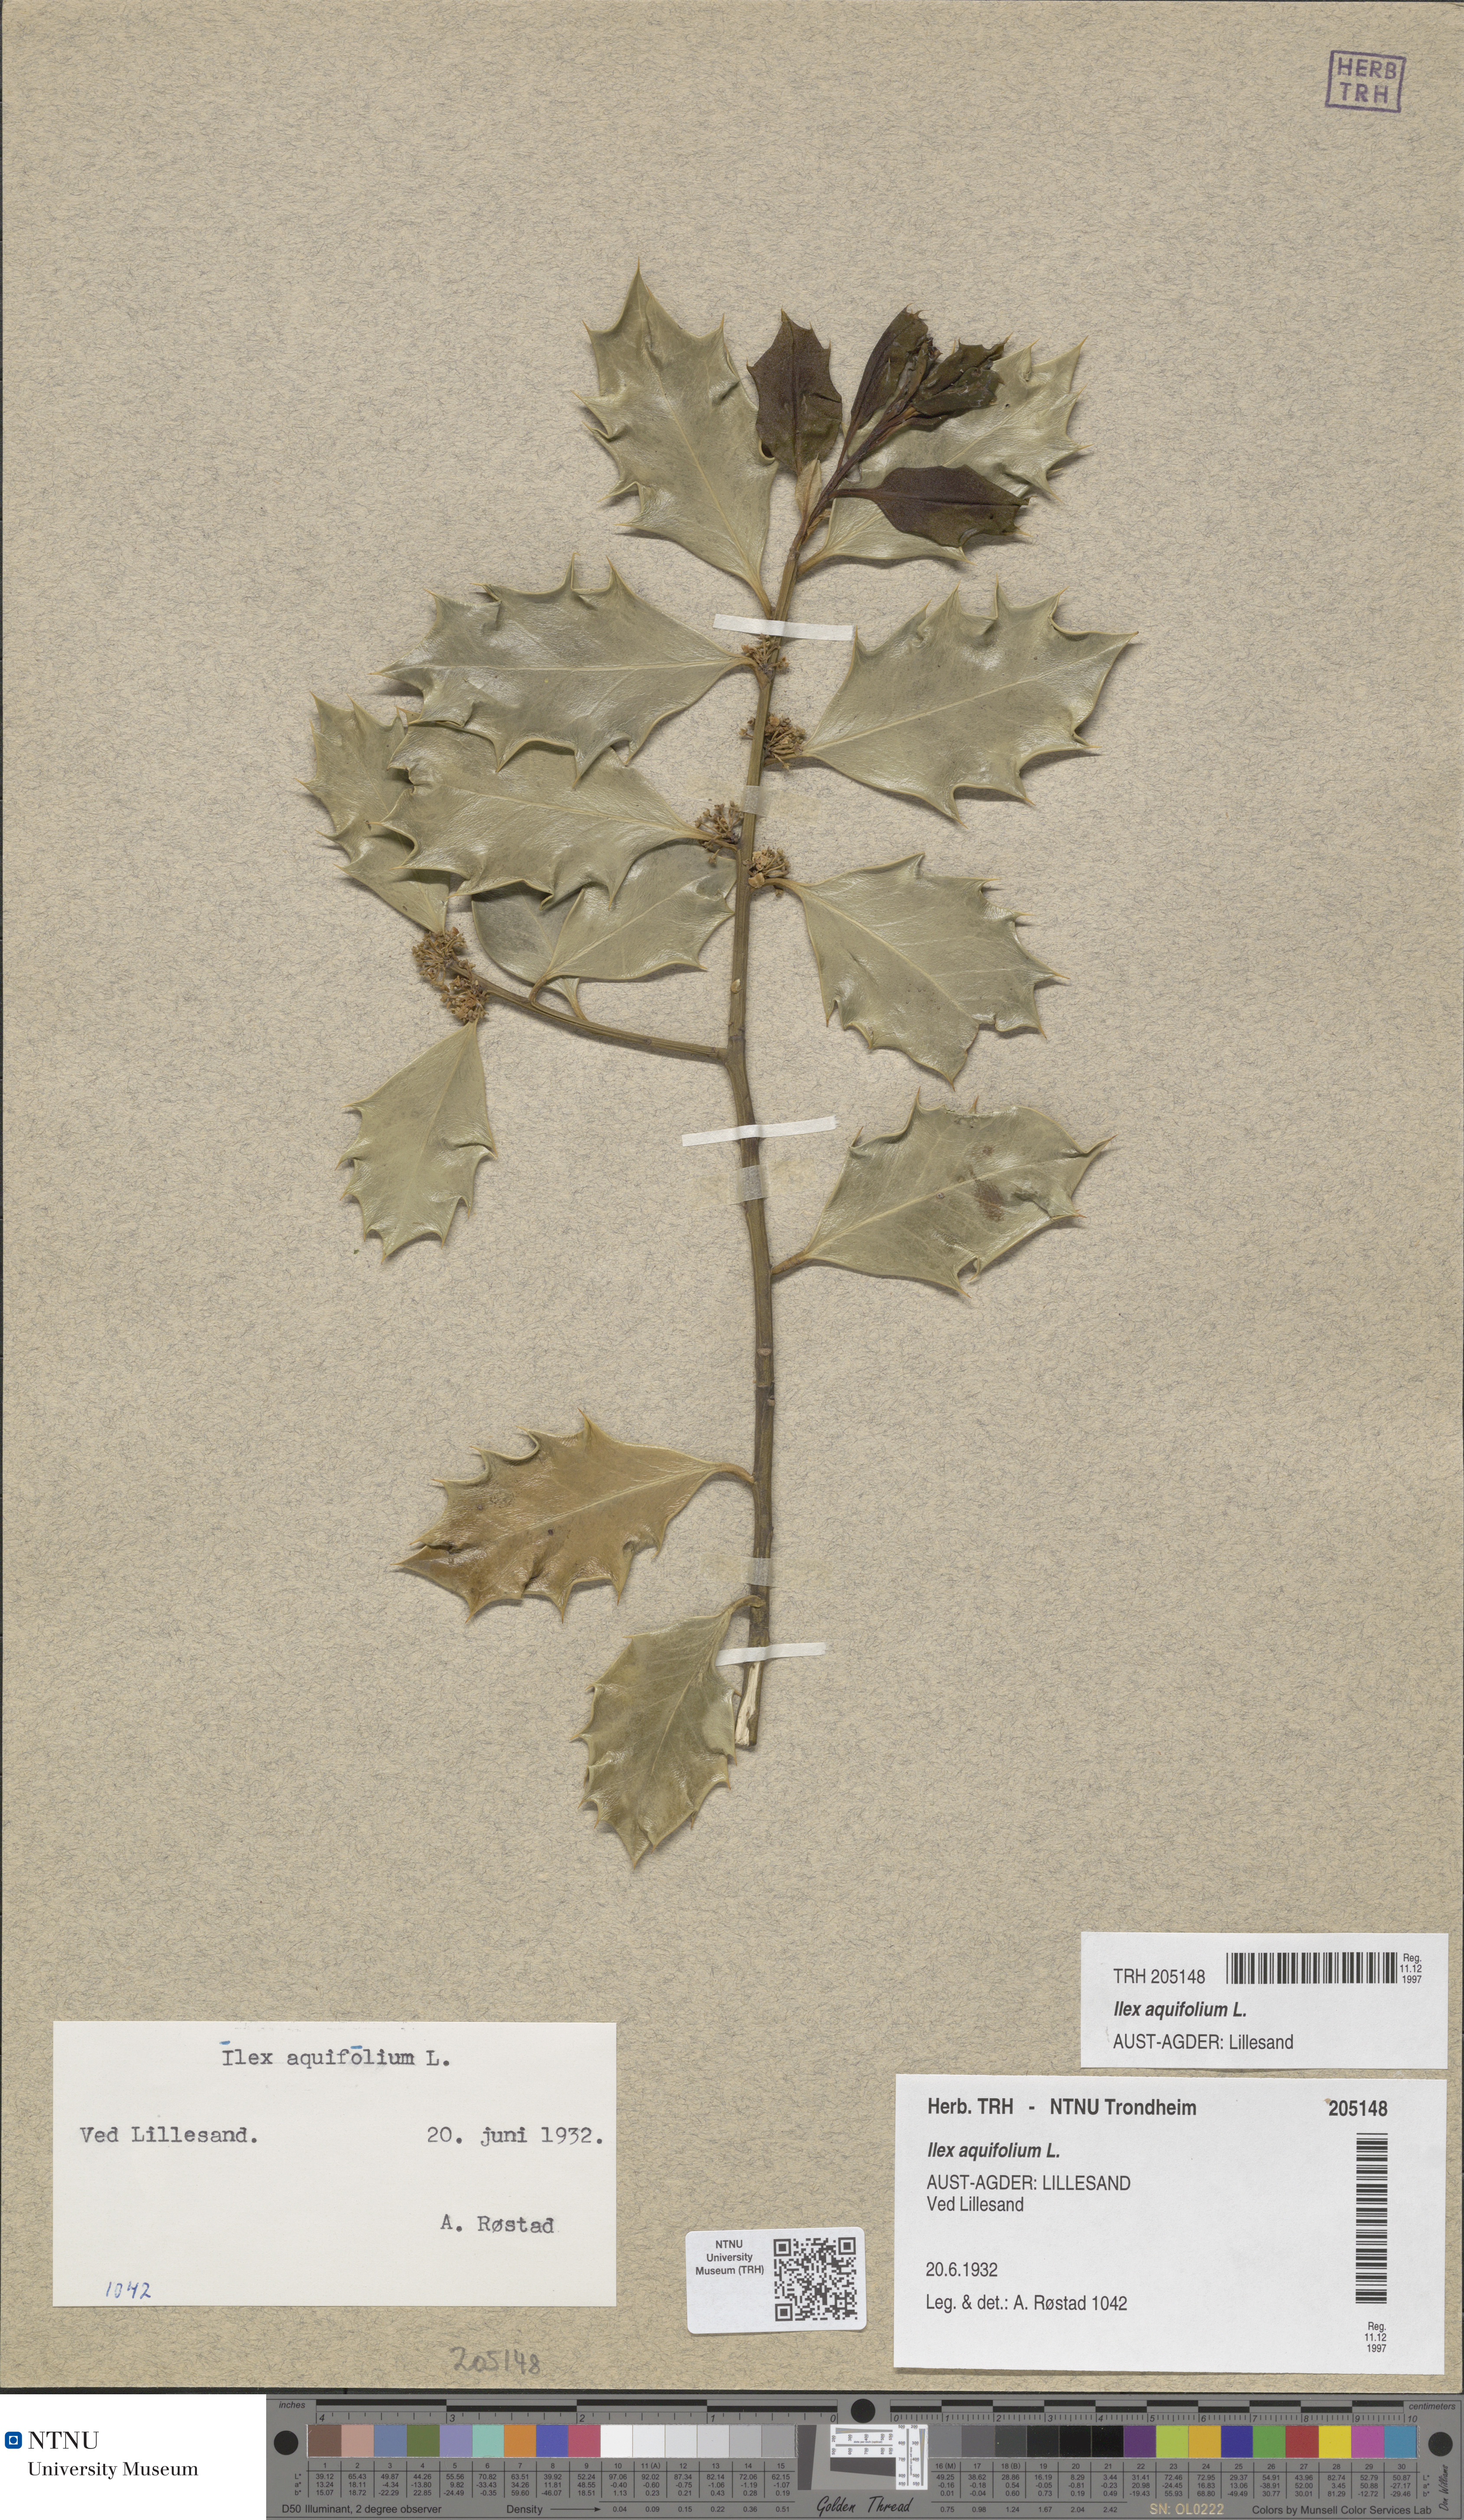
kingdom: Plantae
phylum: Tracheophyta
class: Magnoliopsida
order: Aquifoliales
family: Aquifoliaceae
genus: Ilex
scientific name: Ilex aquifolium
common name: English holly
